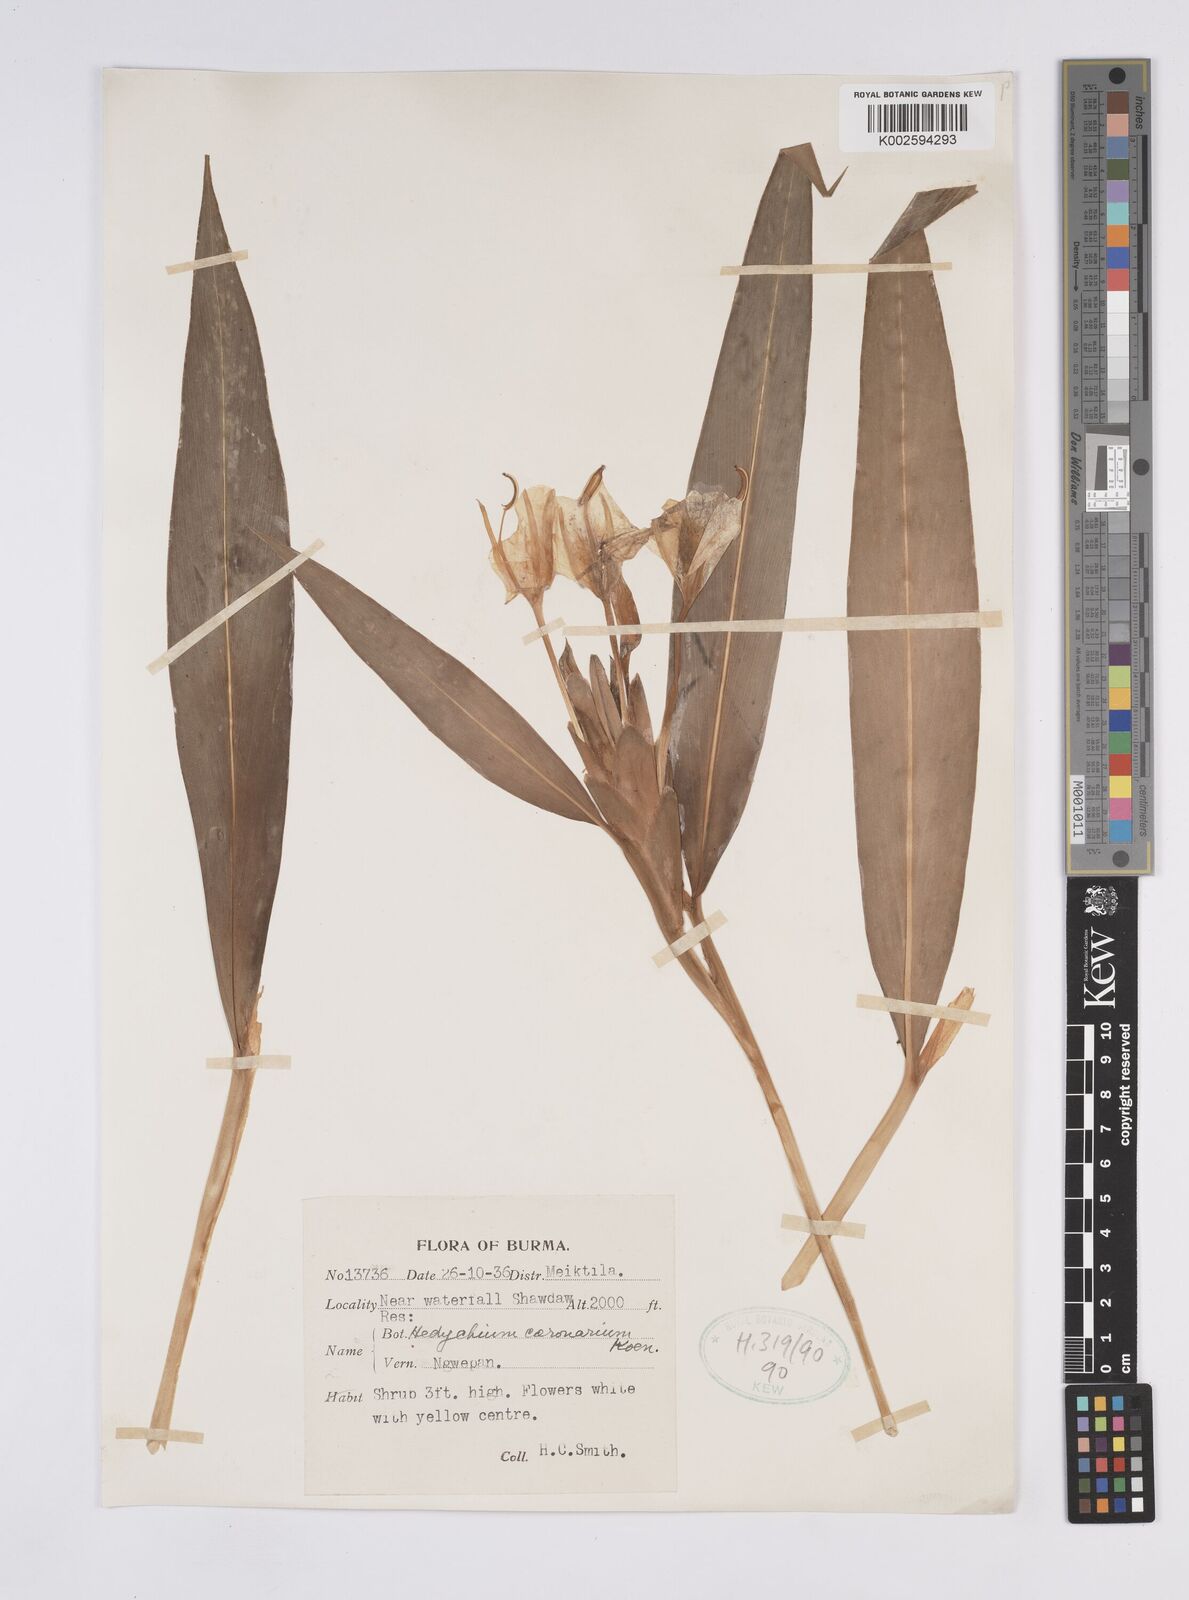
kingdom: Plantae
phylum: Tracheophyta
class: Liliopsida
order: Zingiberales
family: Zingiberaceae
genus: Hedychium
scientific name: Hedychium coronarium
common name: White garland-lily
